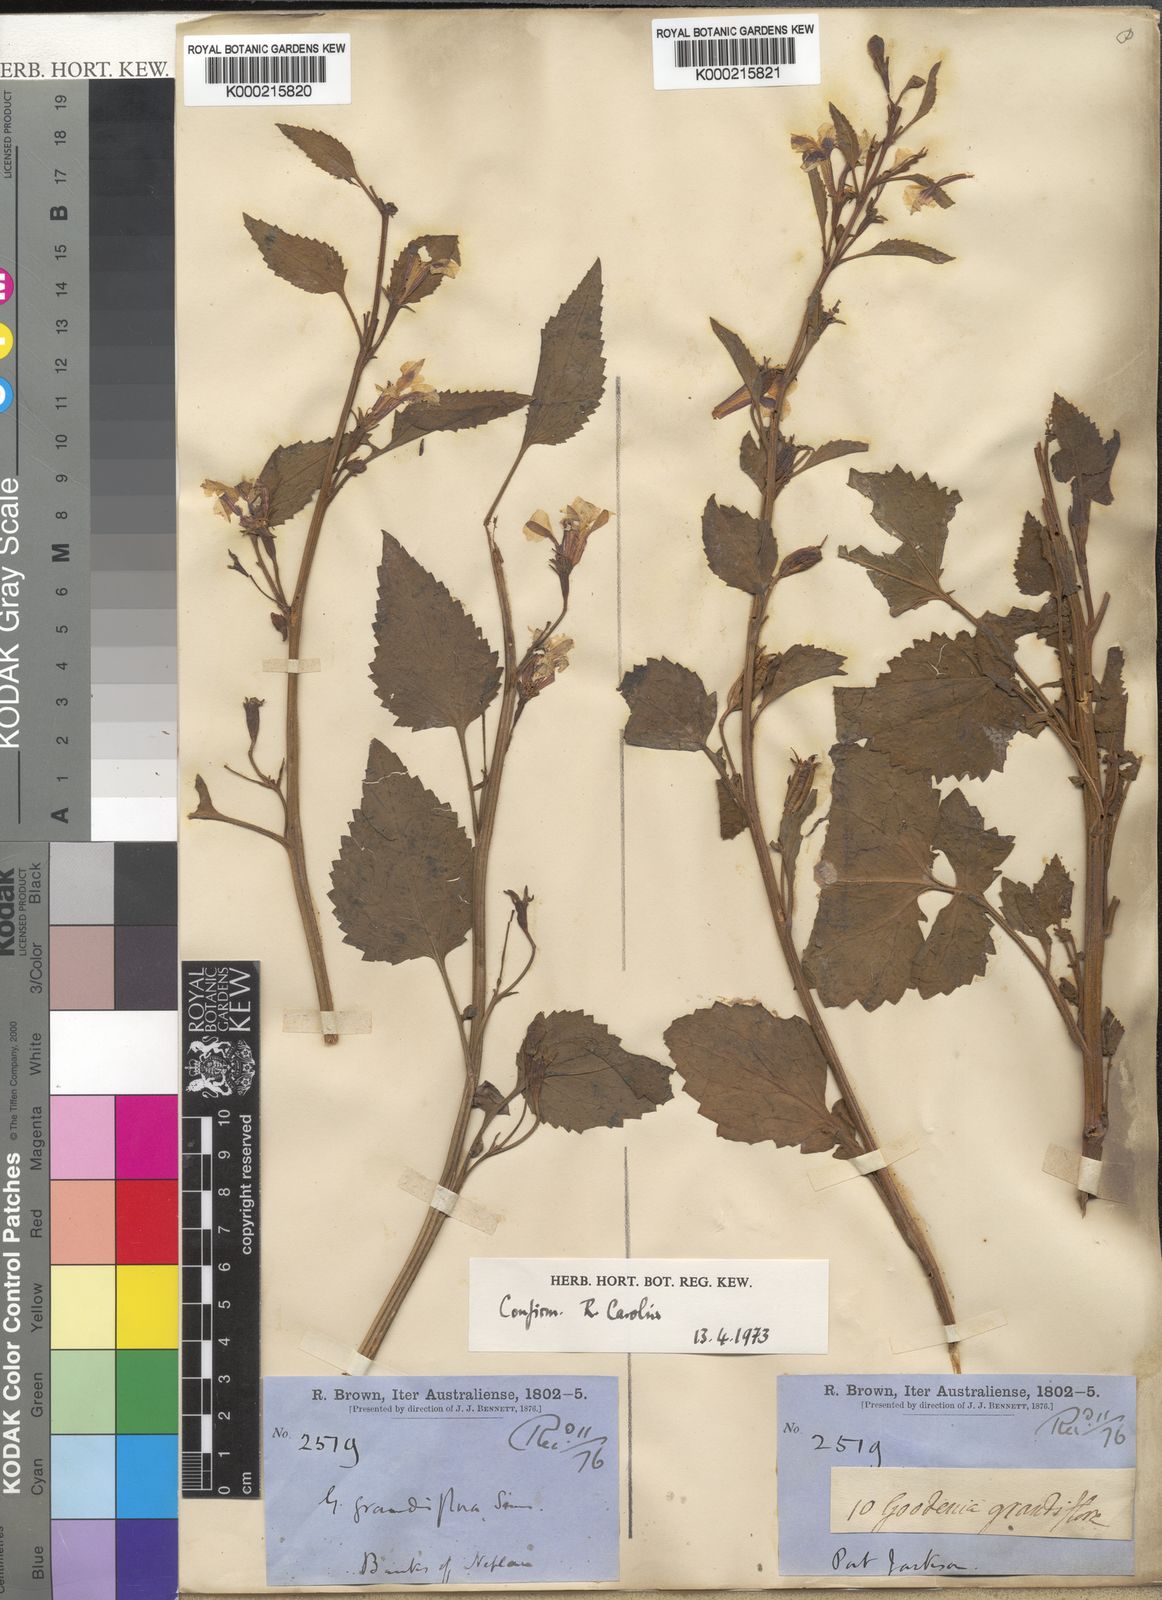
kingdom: Plantae
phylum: Tracheophyta
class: Magnoliopsida
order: Asterales
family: Goodeniaceae
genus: Goodenia
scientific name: Goodenia grandiflora
